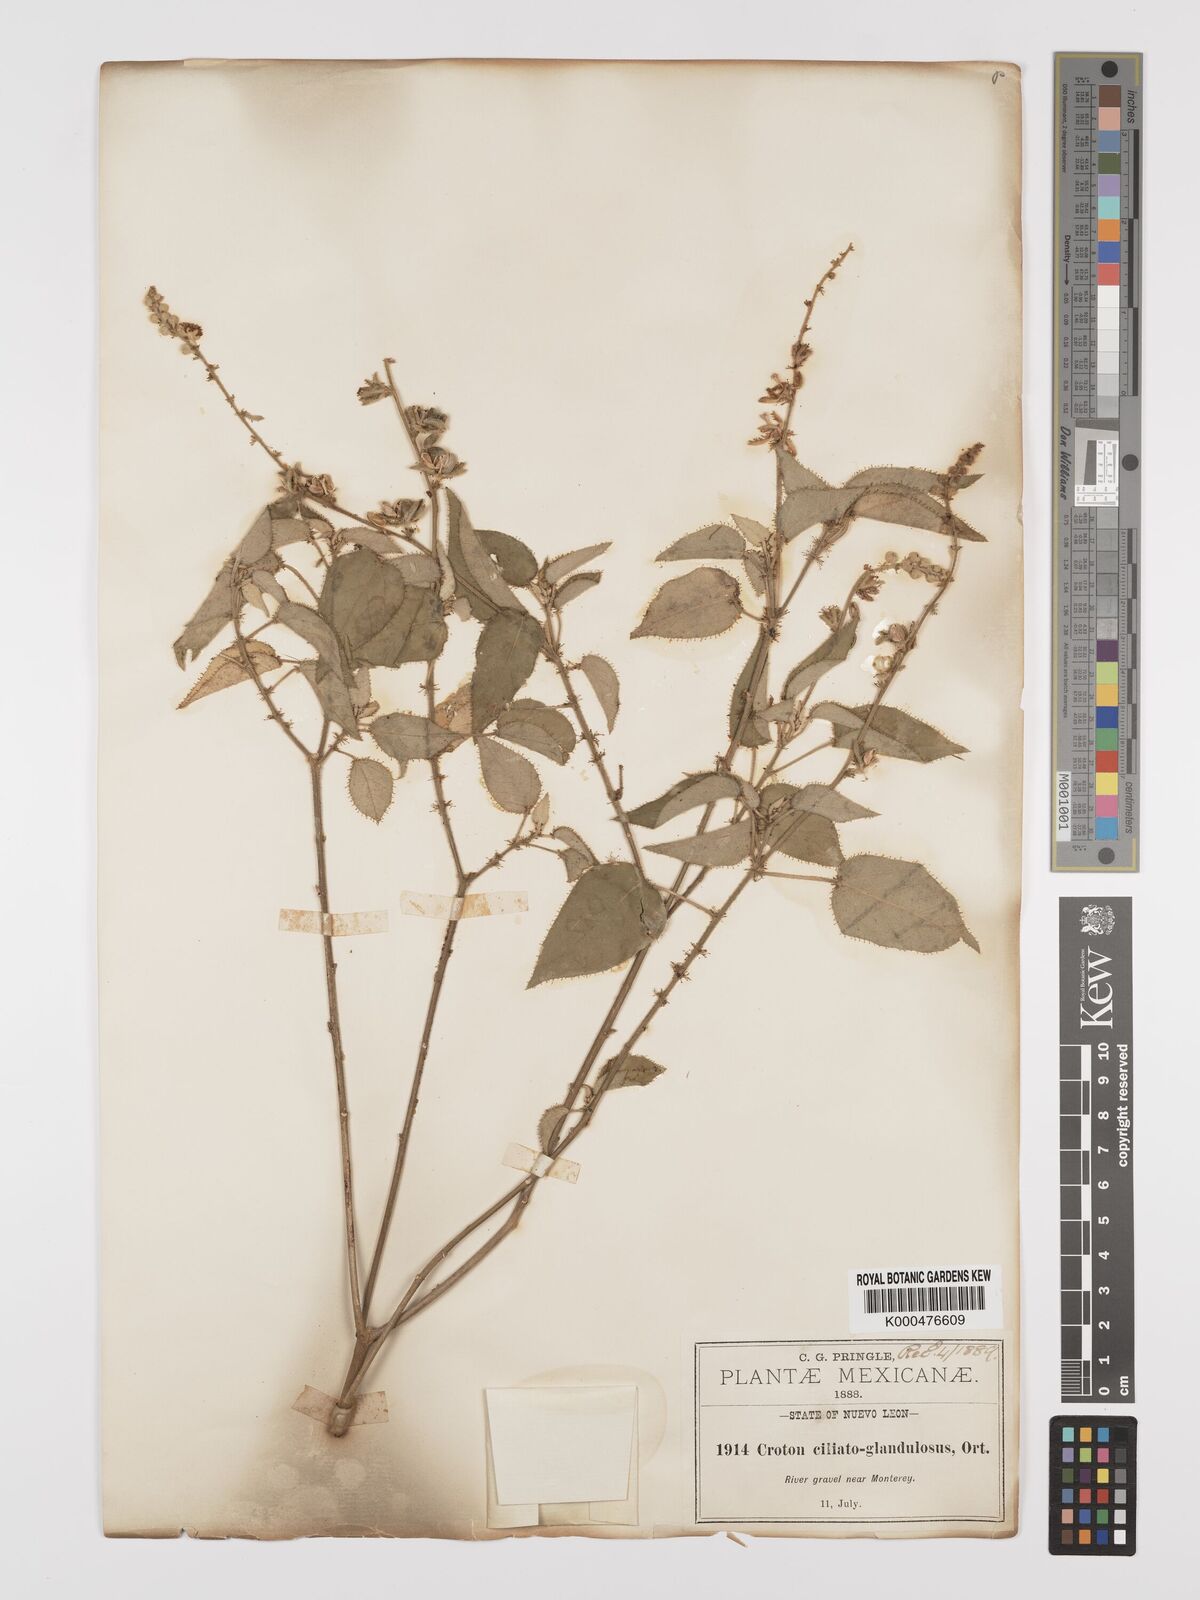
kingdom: Plantae
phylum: Tracheophyta
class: Magnoliopsida
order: Malpighiales
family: Euphorbiaceae
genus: Croton
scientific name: Croton ciliatoglandulifer
